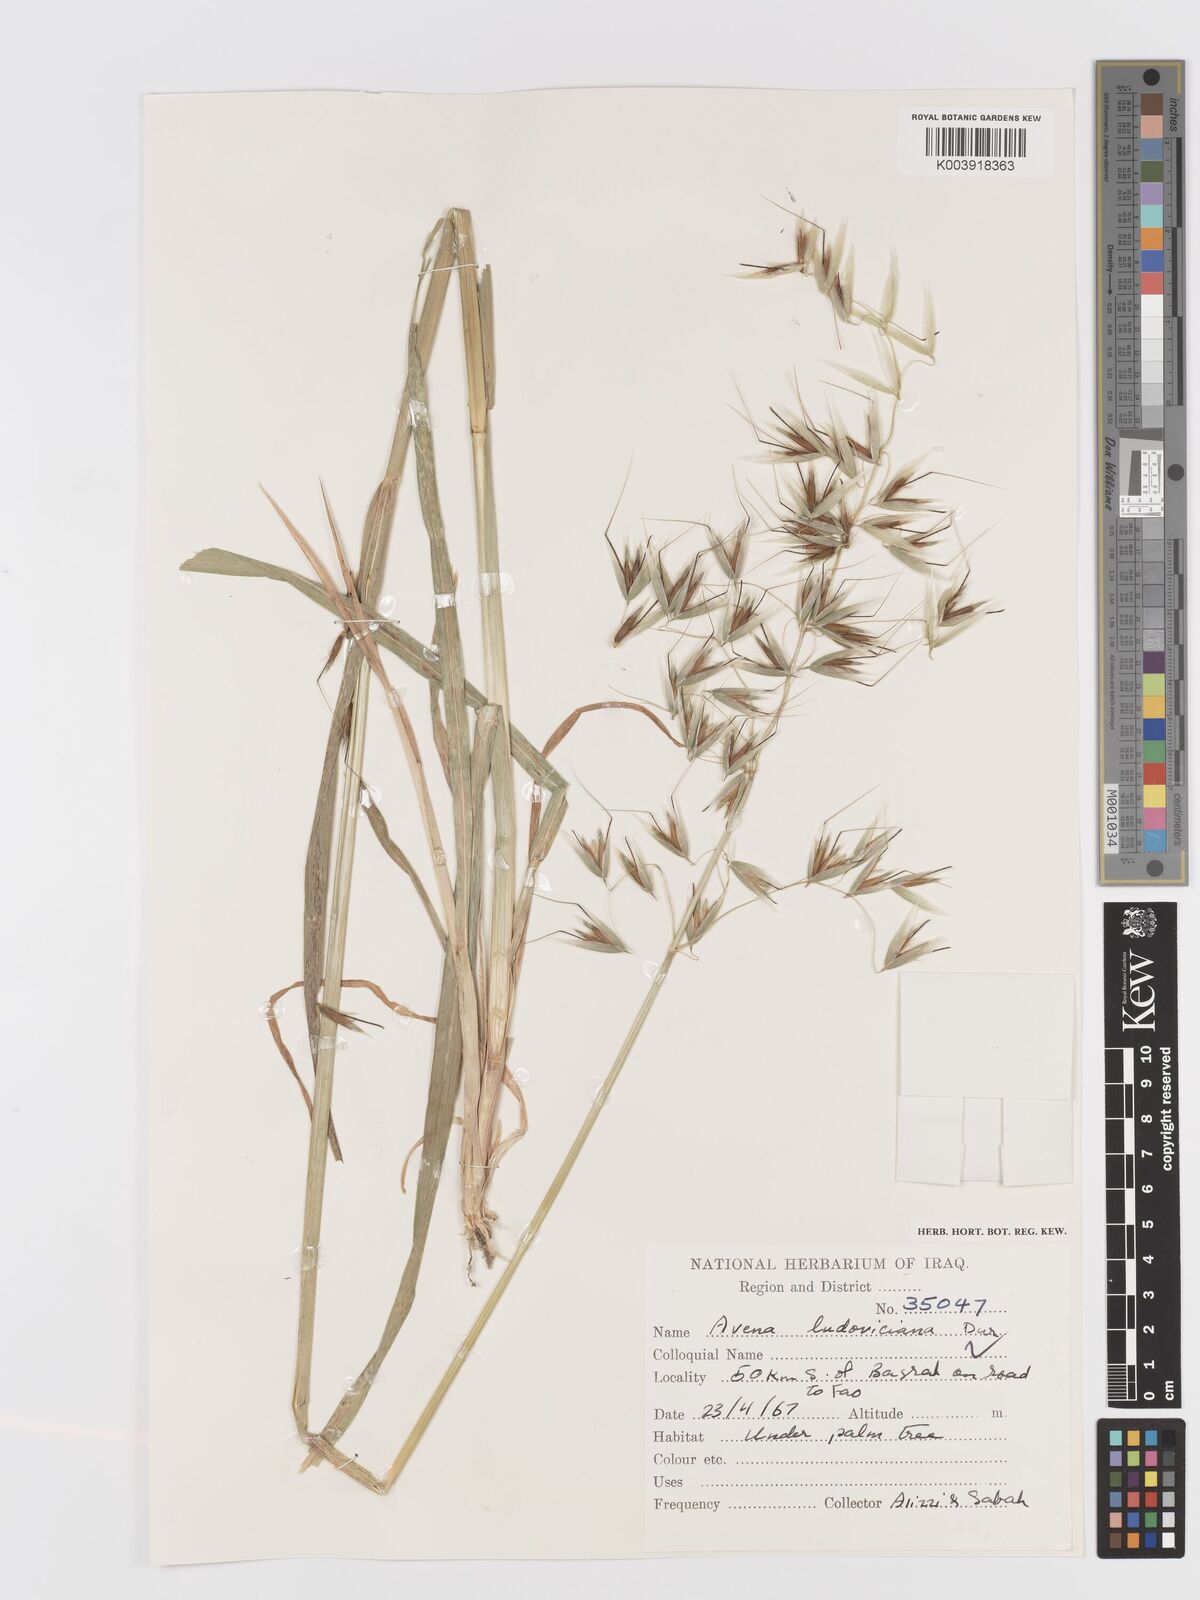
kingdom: Plantae
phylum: Tracheophyta
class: Liliopsida
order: Poales
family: Poaceae
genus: Avena
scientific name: Avena sterilis
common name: Animated oat
